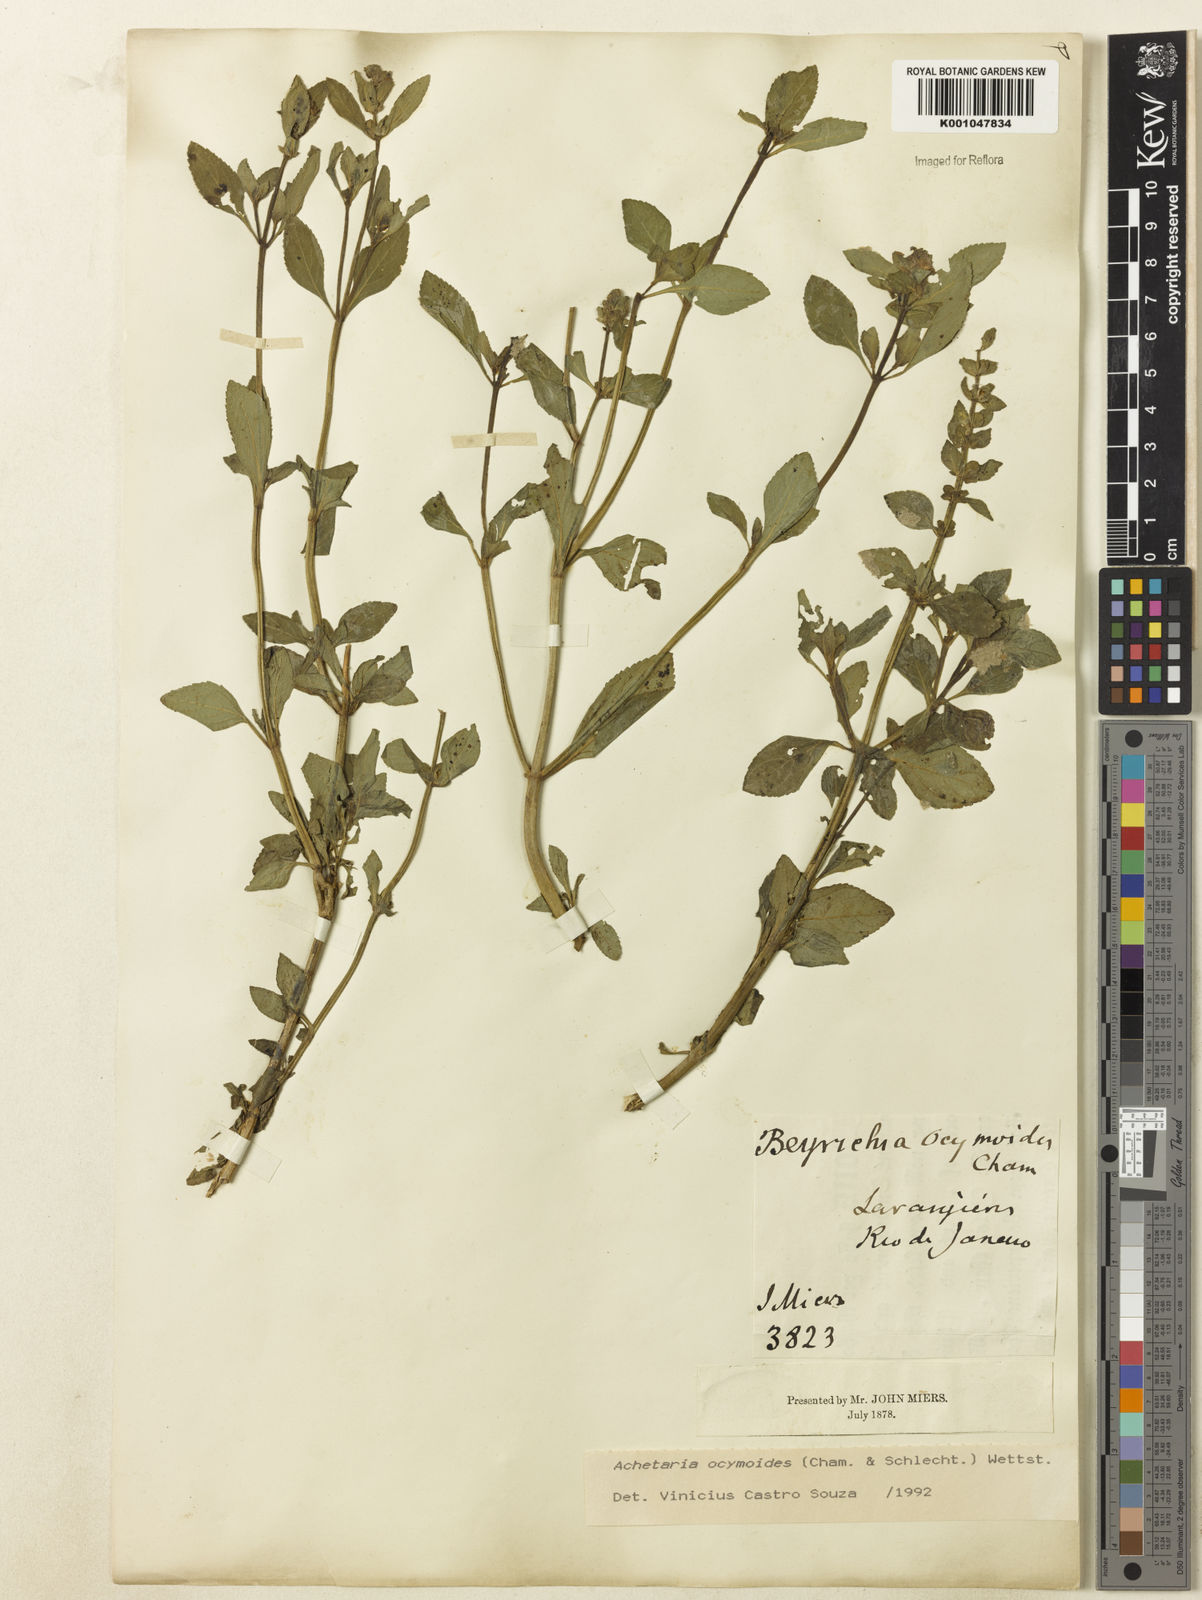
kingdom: Plantae
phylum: Tracheophyta
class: Magnoliopsida
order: Lamiales
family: Plantaginaceae
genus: Matourea
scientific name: Matourea ocymoides
